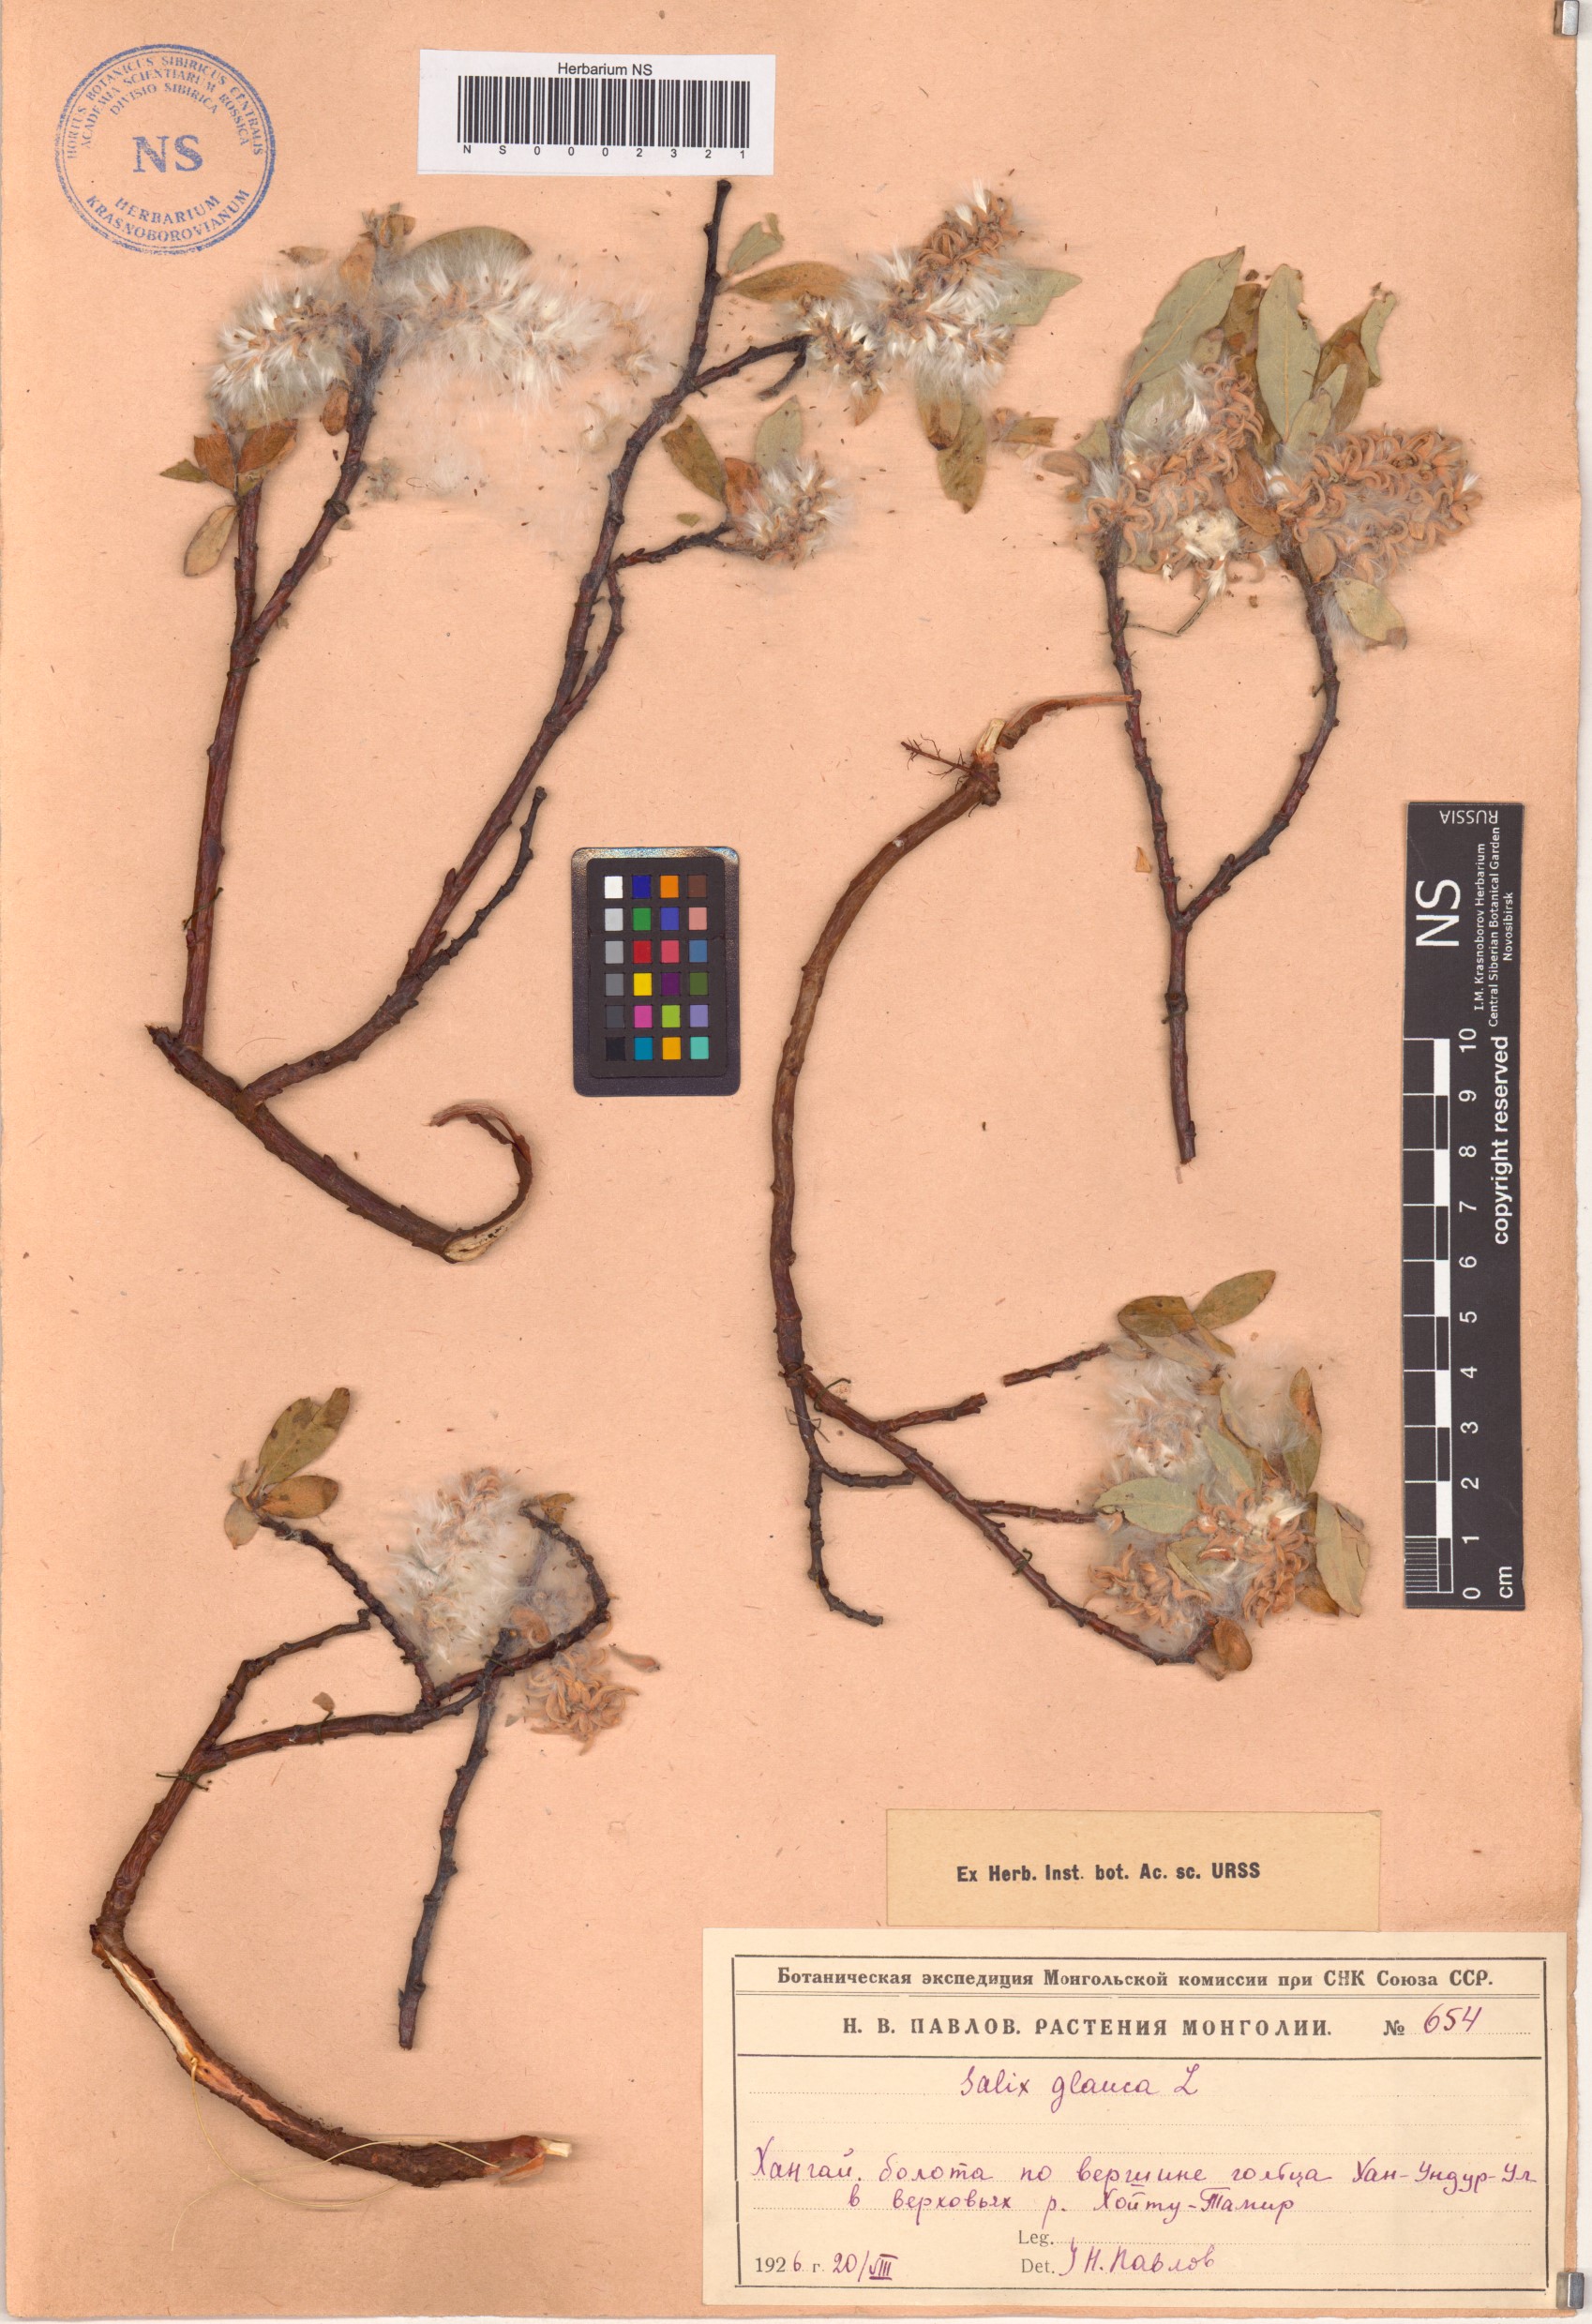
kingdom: Plantae
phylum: Tracheophyta
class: Magnoliopsida
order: Malpighiales
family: Salicaceae
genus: Salix
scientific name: Salix glauca
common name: Glaucous willow
